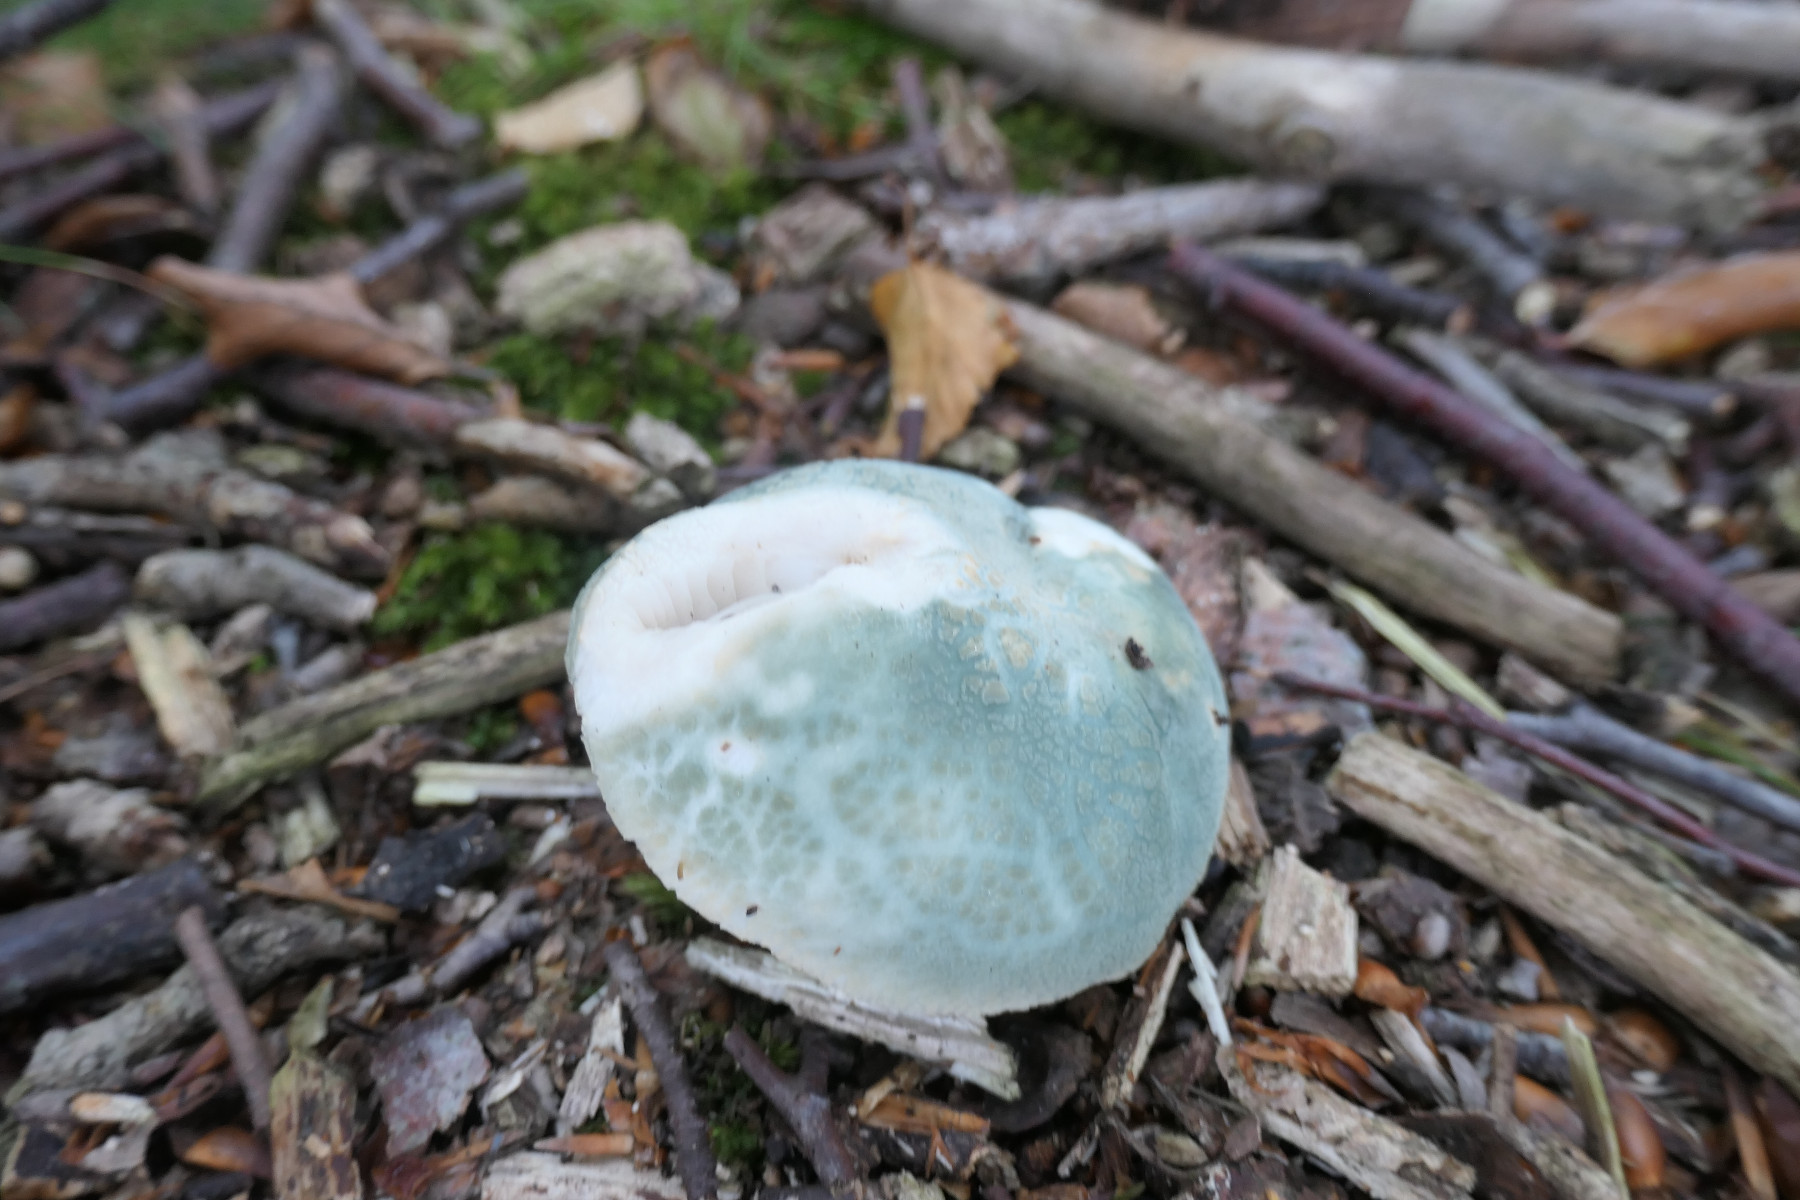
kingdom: Fungi
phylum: Basidiomycota
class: Agaricomycetes
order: Russulales
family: Russulaceae
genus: Russula
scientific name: Russula virescens
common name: spanskgrøn skørhat
